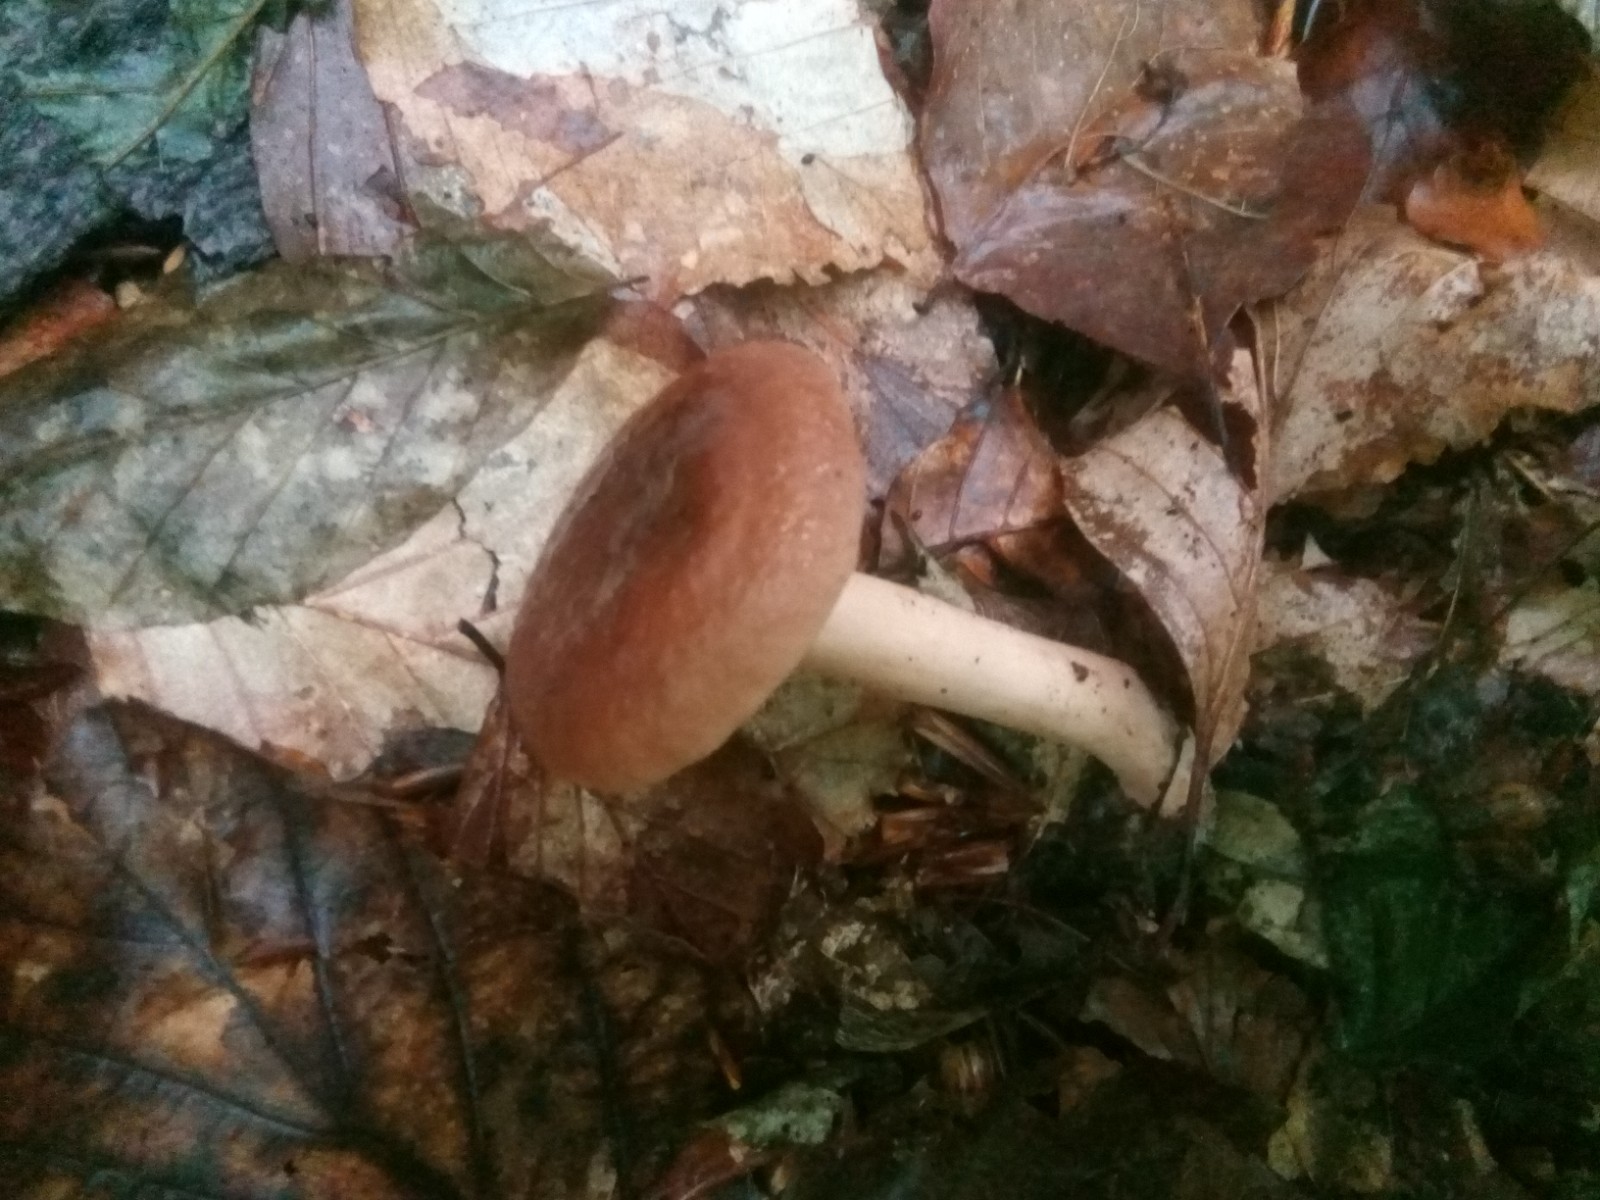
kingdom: Fungi
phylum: Basidiomycota
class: Agaricomycetes
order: Russulales
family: Russulaceae
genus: Lactarius
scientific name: Lactarius subdulcis
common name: sødlig mælkehat
